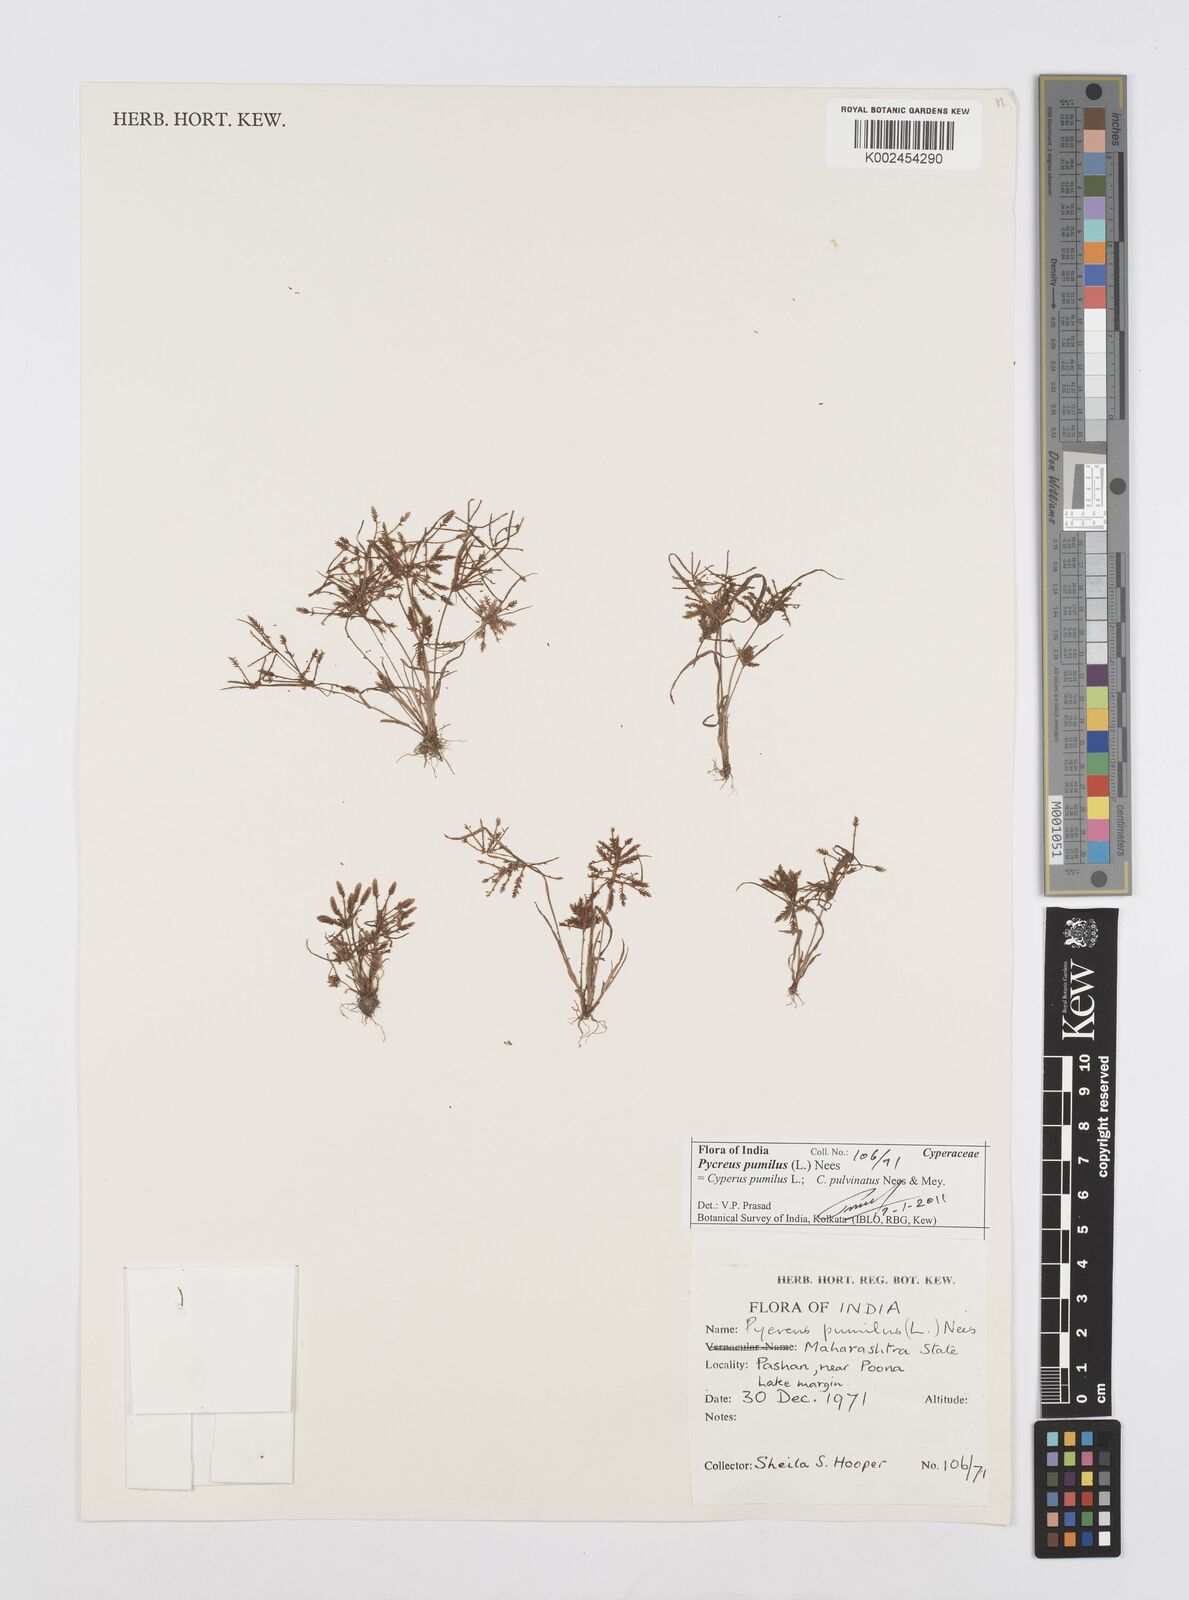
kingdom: Plantae
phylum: Tracheophyta
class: Liliopsida
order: Poales
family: Cyperaceae
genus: Cyperus
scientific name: Cyperus pumilus
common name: Low flatsedge
